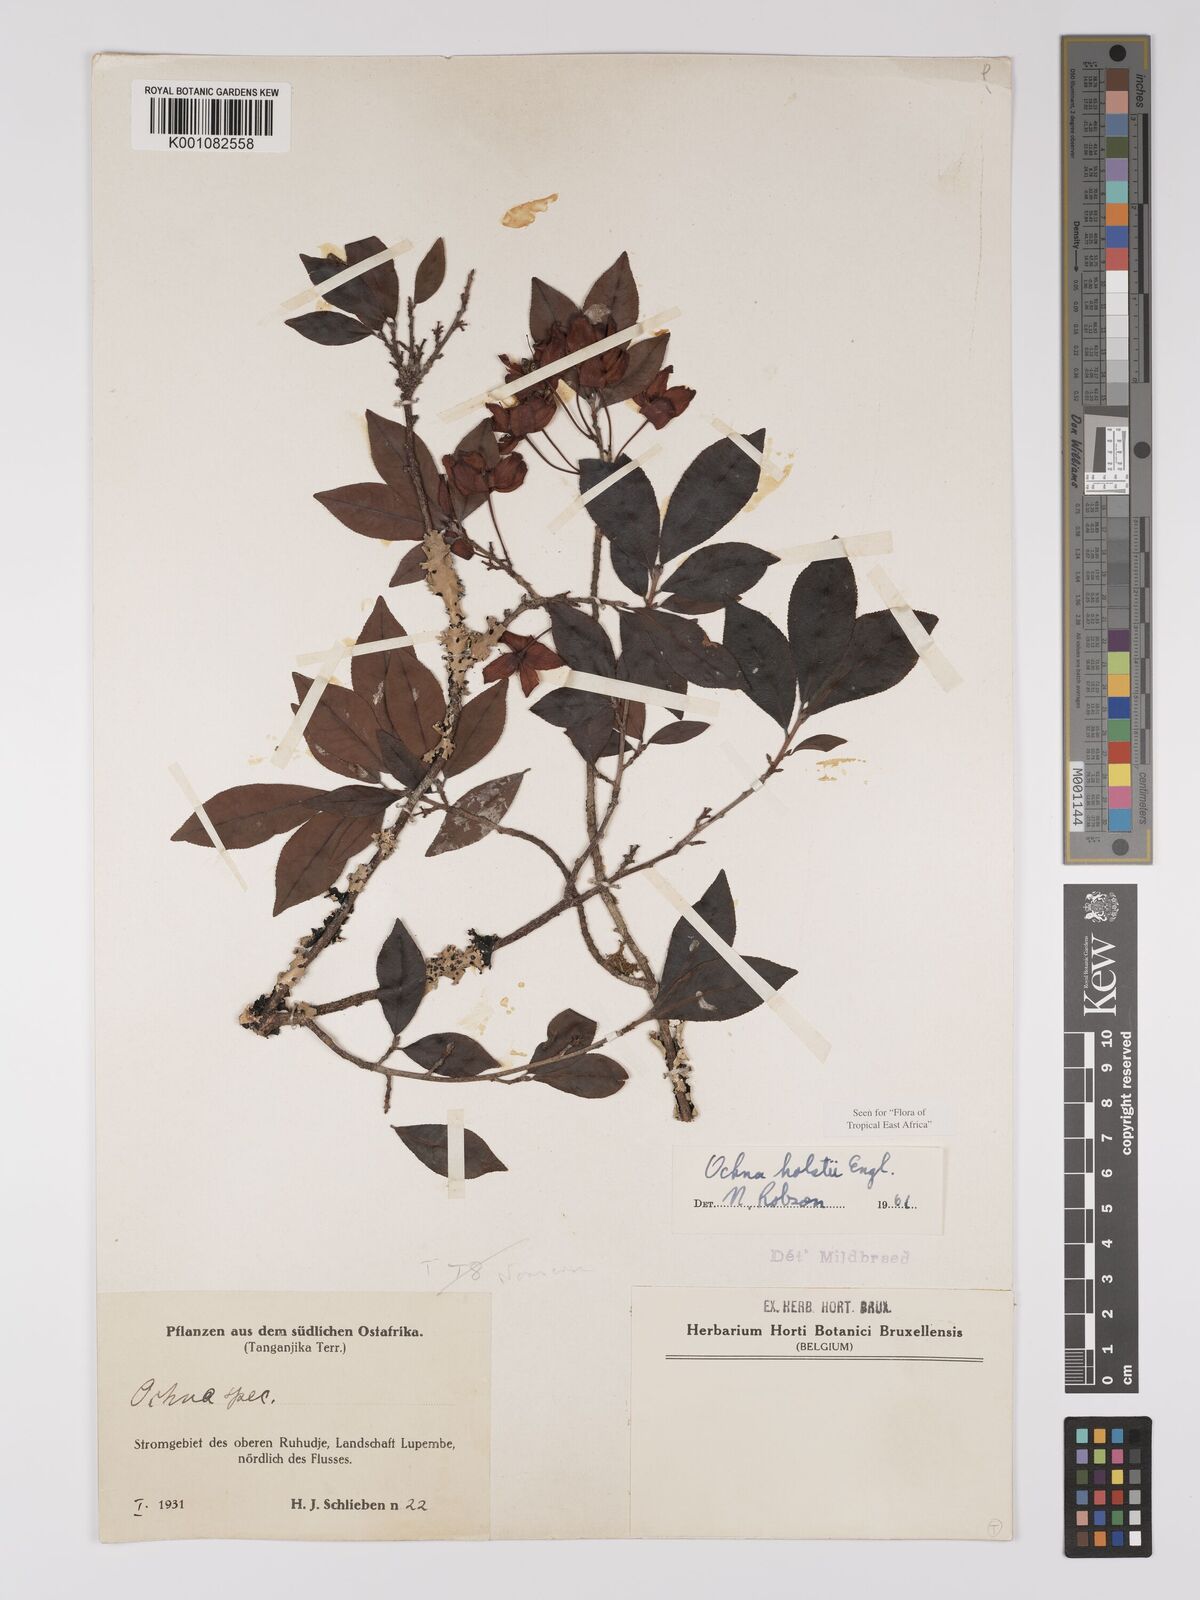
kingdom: Plantae
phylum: Tracheophyta
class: Magnoliopsida
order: Malpighiales
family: Ochnaceae
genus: Ochna
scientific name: Ochna holstii
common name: Red ironwood
